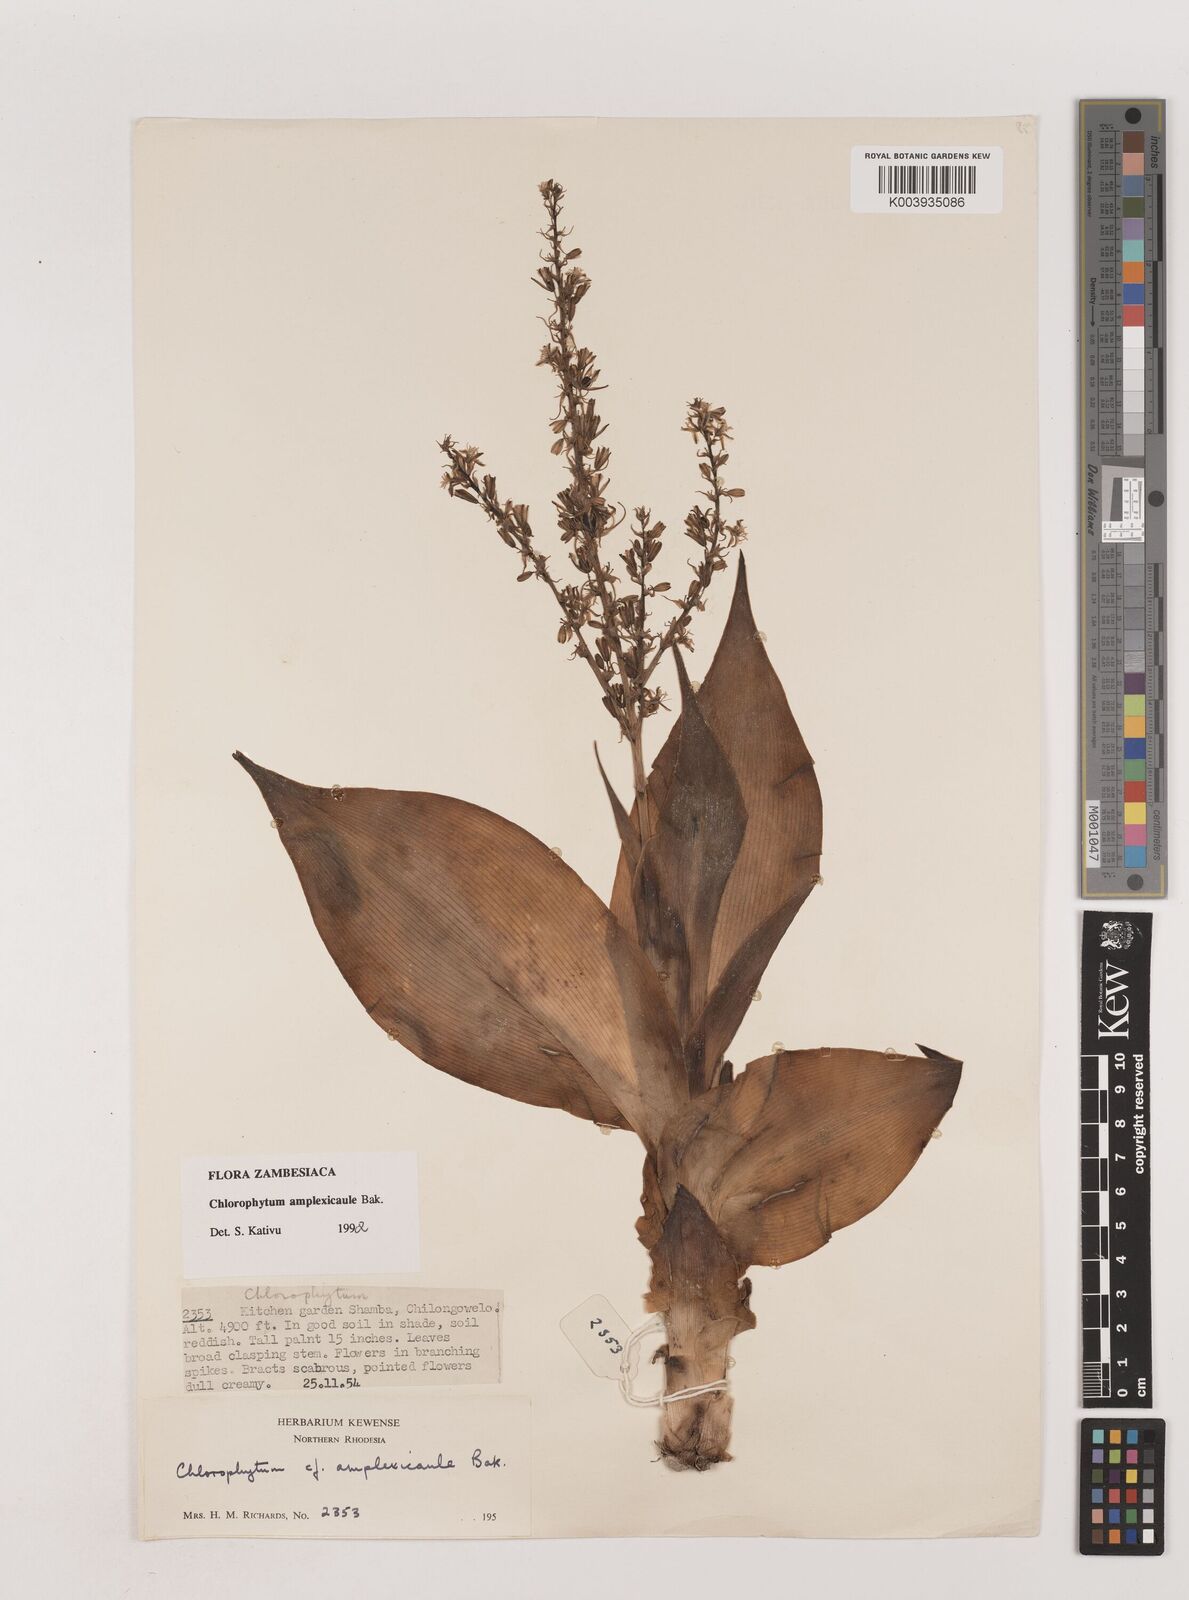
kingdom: Plantae
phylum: Tracheophyta
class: Liliopsida
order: Asparagales
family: Asparagaceae
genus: Chlorophytum
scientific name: Chlorophytum blepharophyllum
